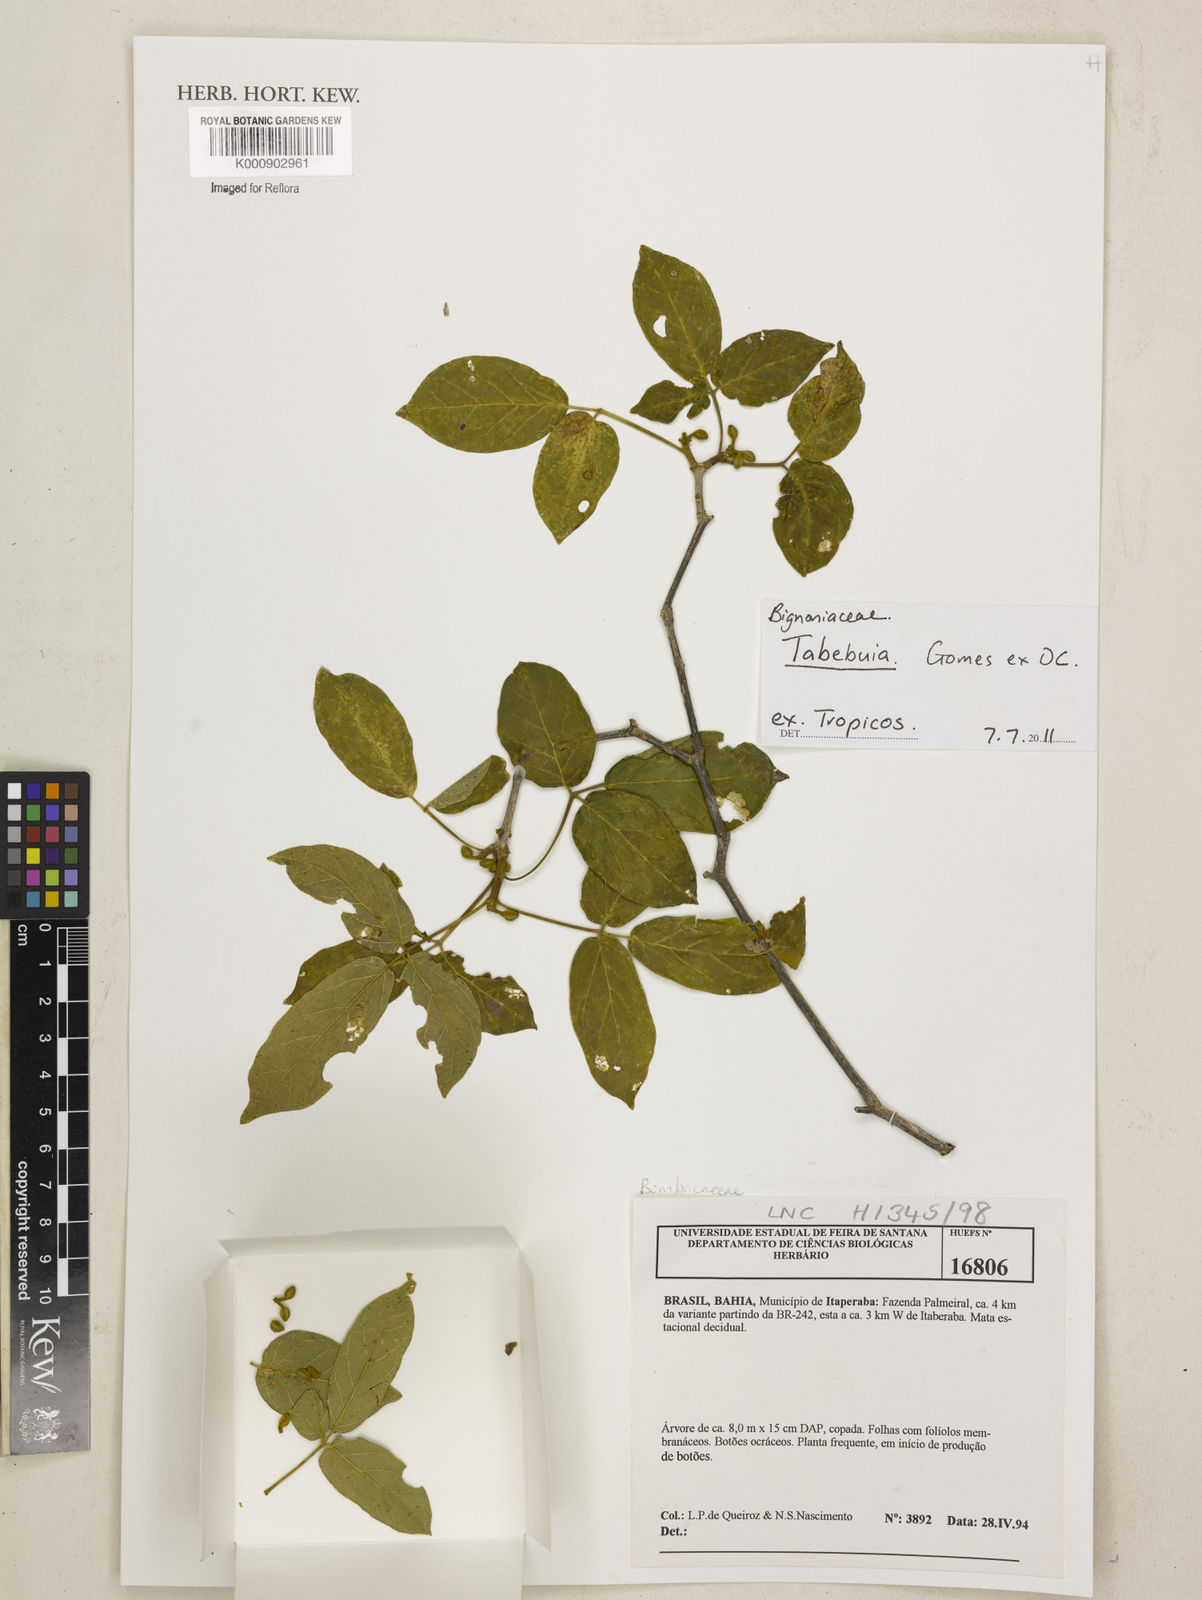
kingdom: Plantae
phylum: Tracheophyta
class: Magnoliopsida
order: Lamiales
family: Bignoniaceae
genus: Handroanthus
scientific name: Handroanthus spongiosus
